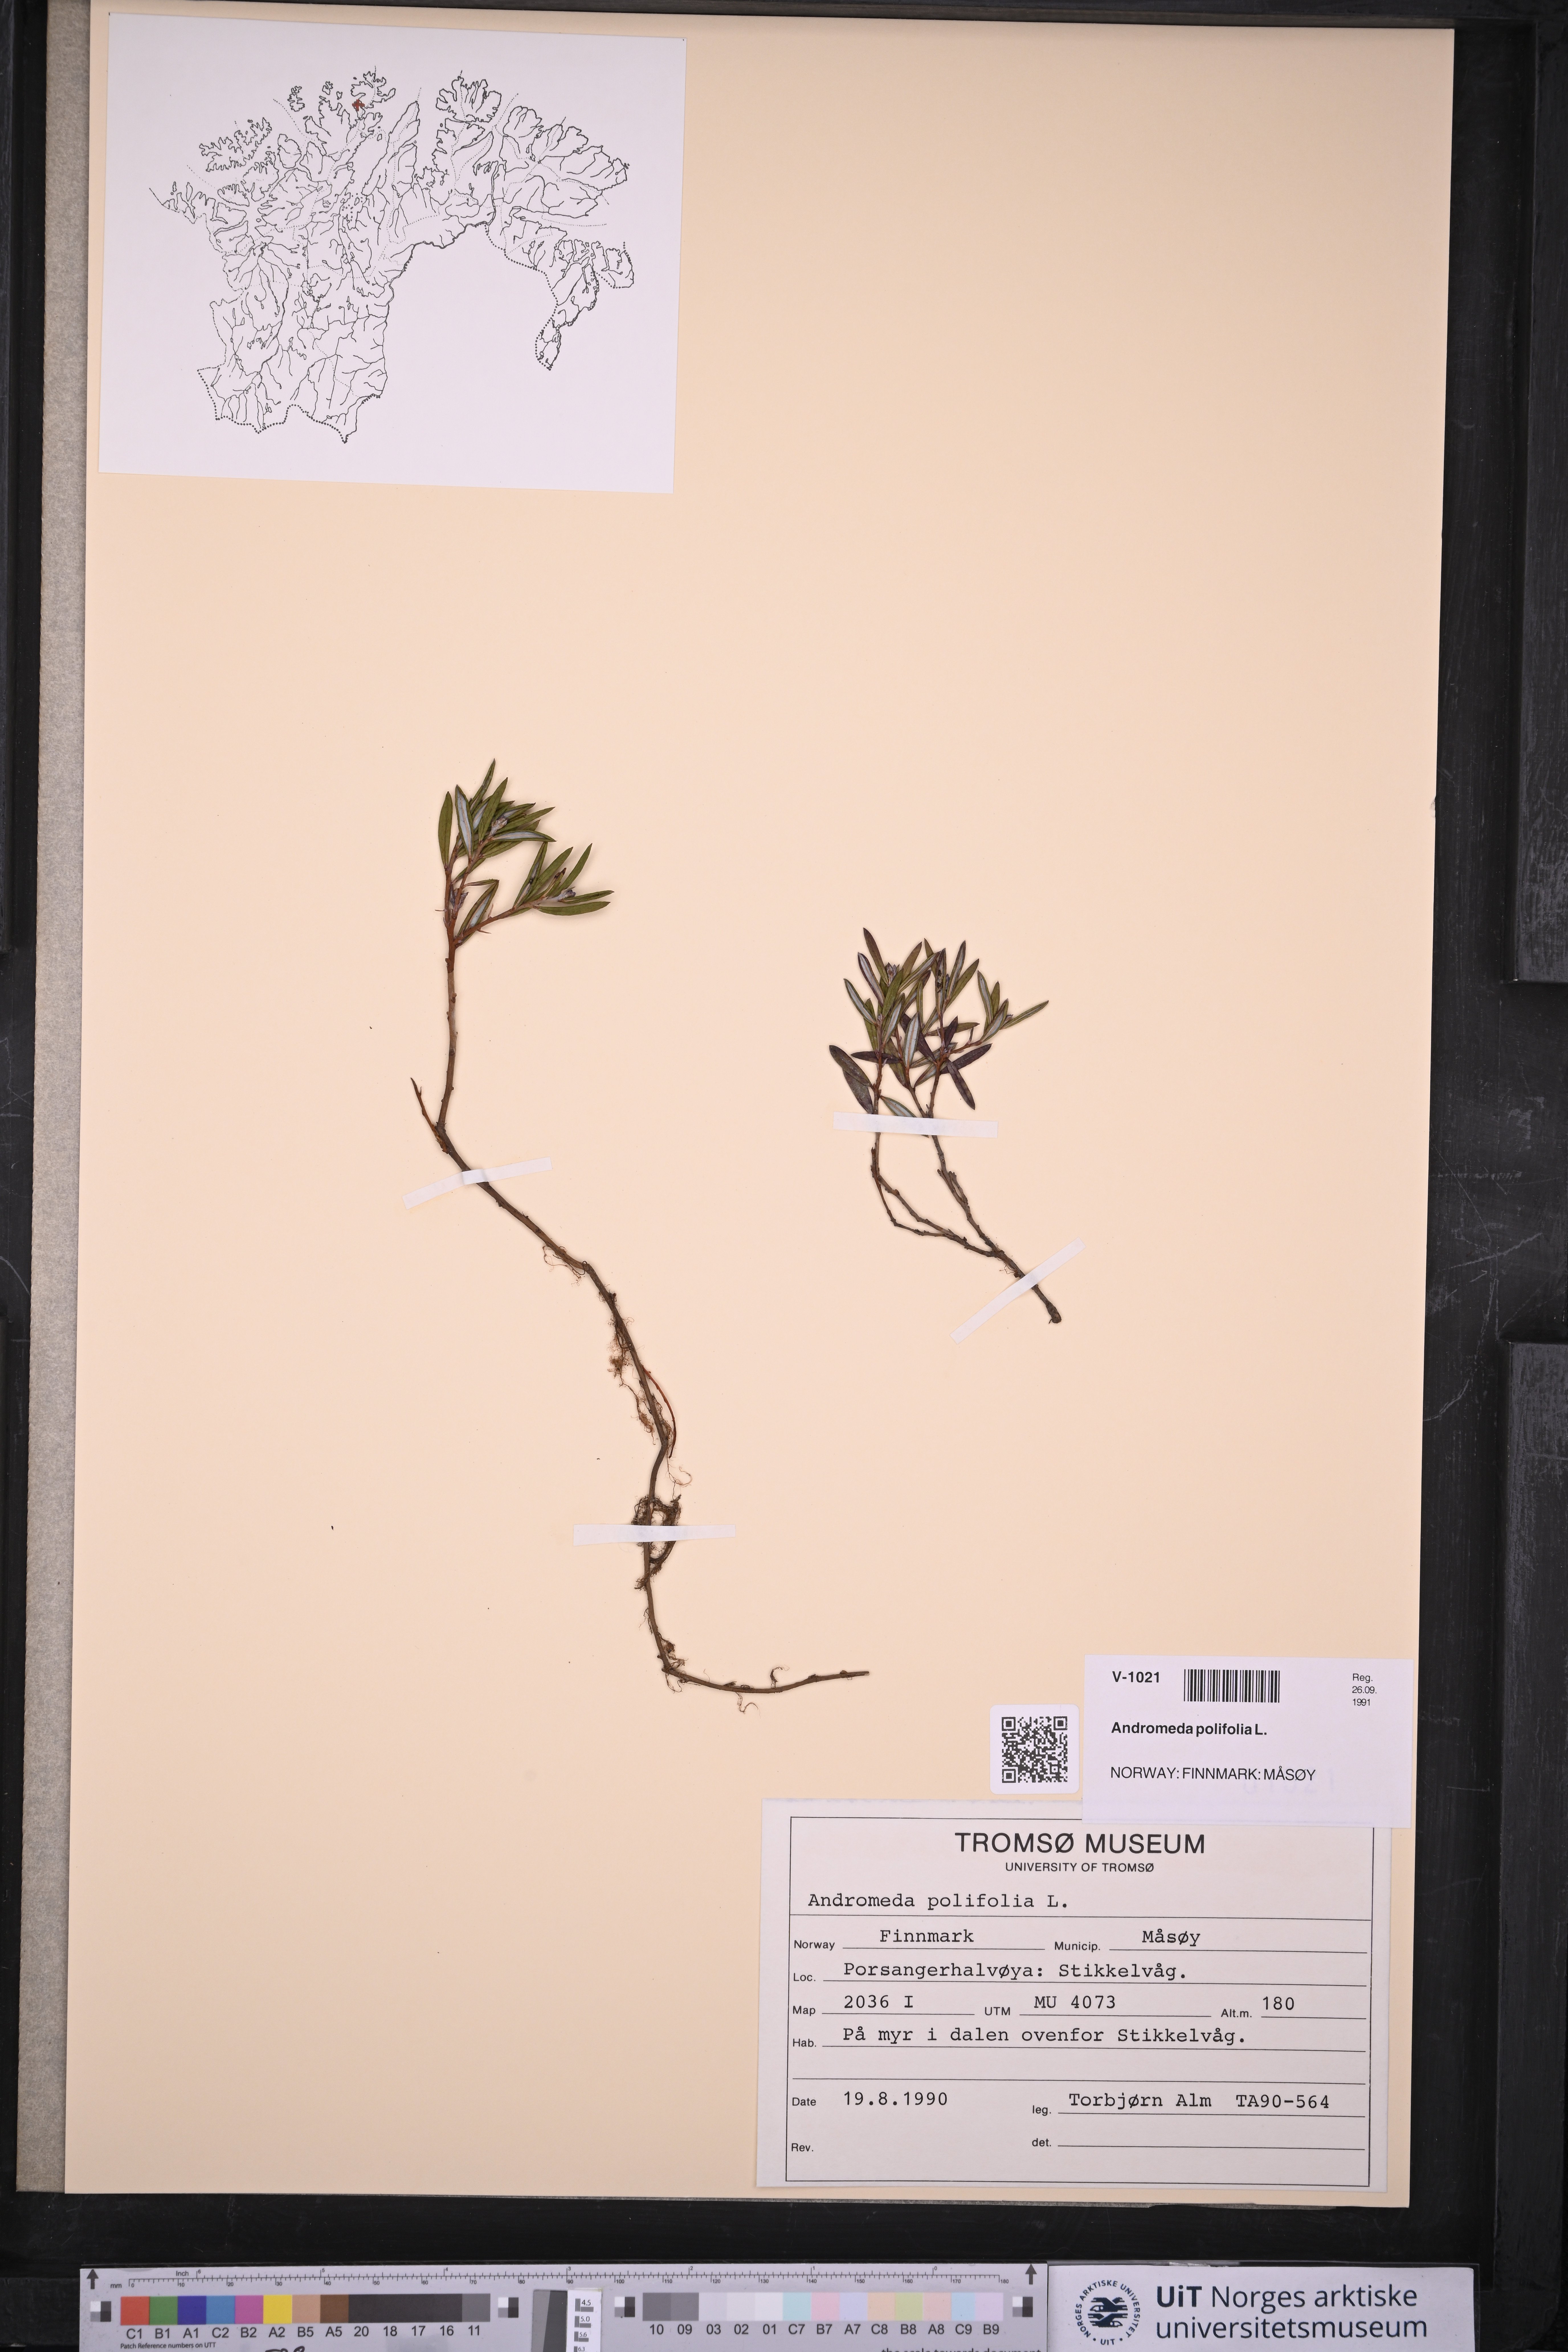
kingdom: Plantae
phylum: Tracheophyta
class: Magnoliopsida
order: Ericales
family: Ericaceae
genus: Andromeda
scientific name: Andromeda polifolia
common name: Bog-rosemary
